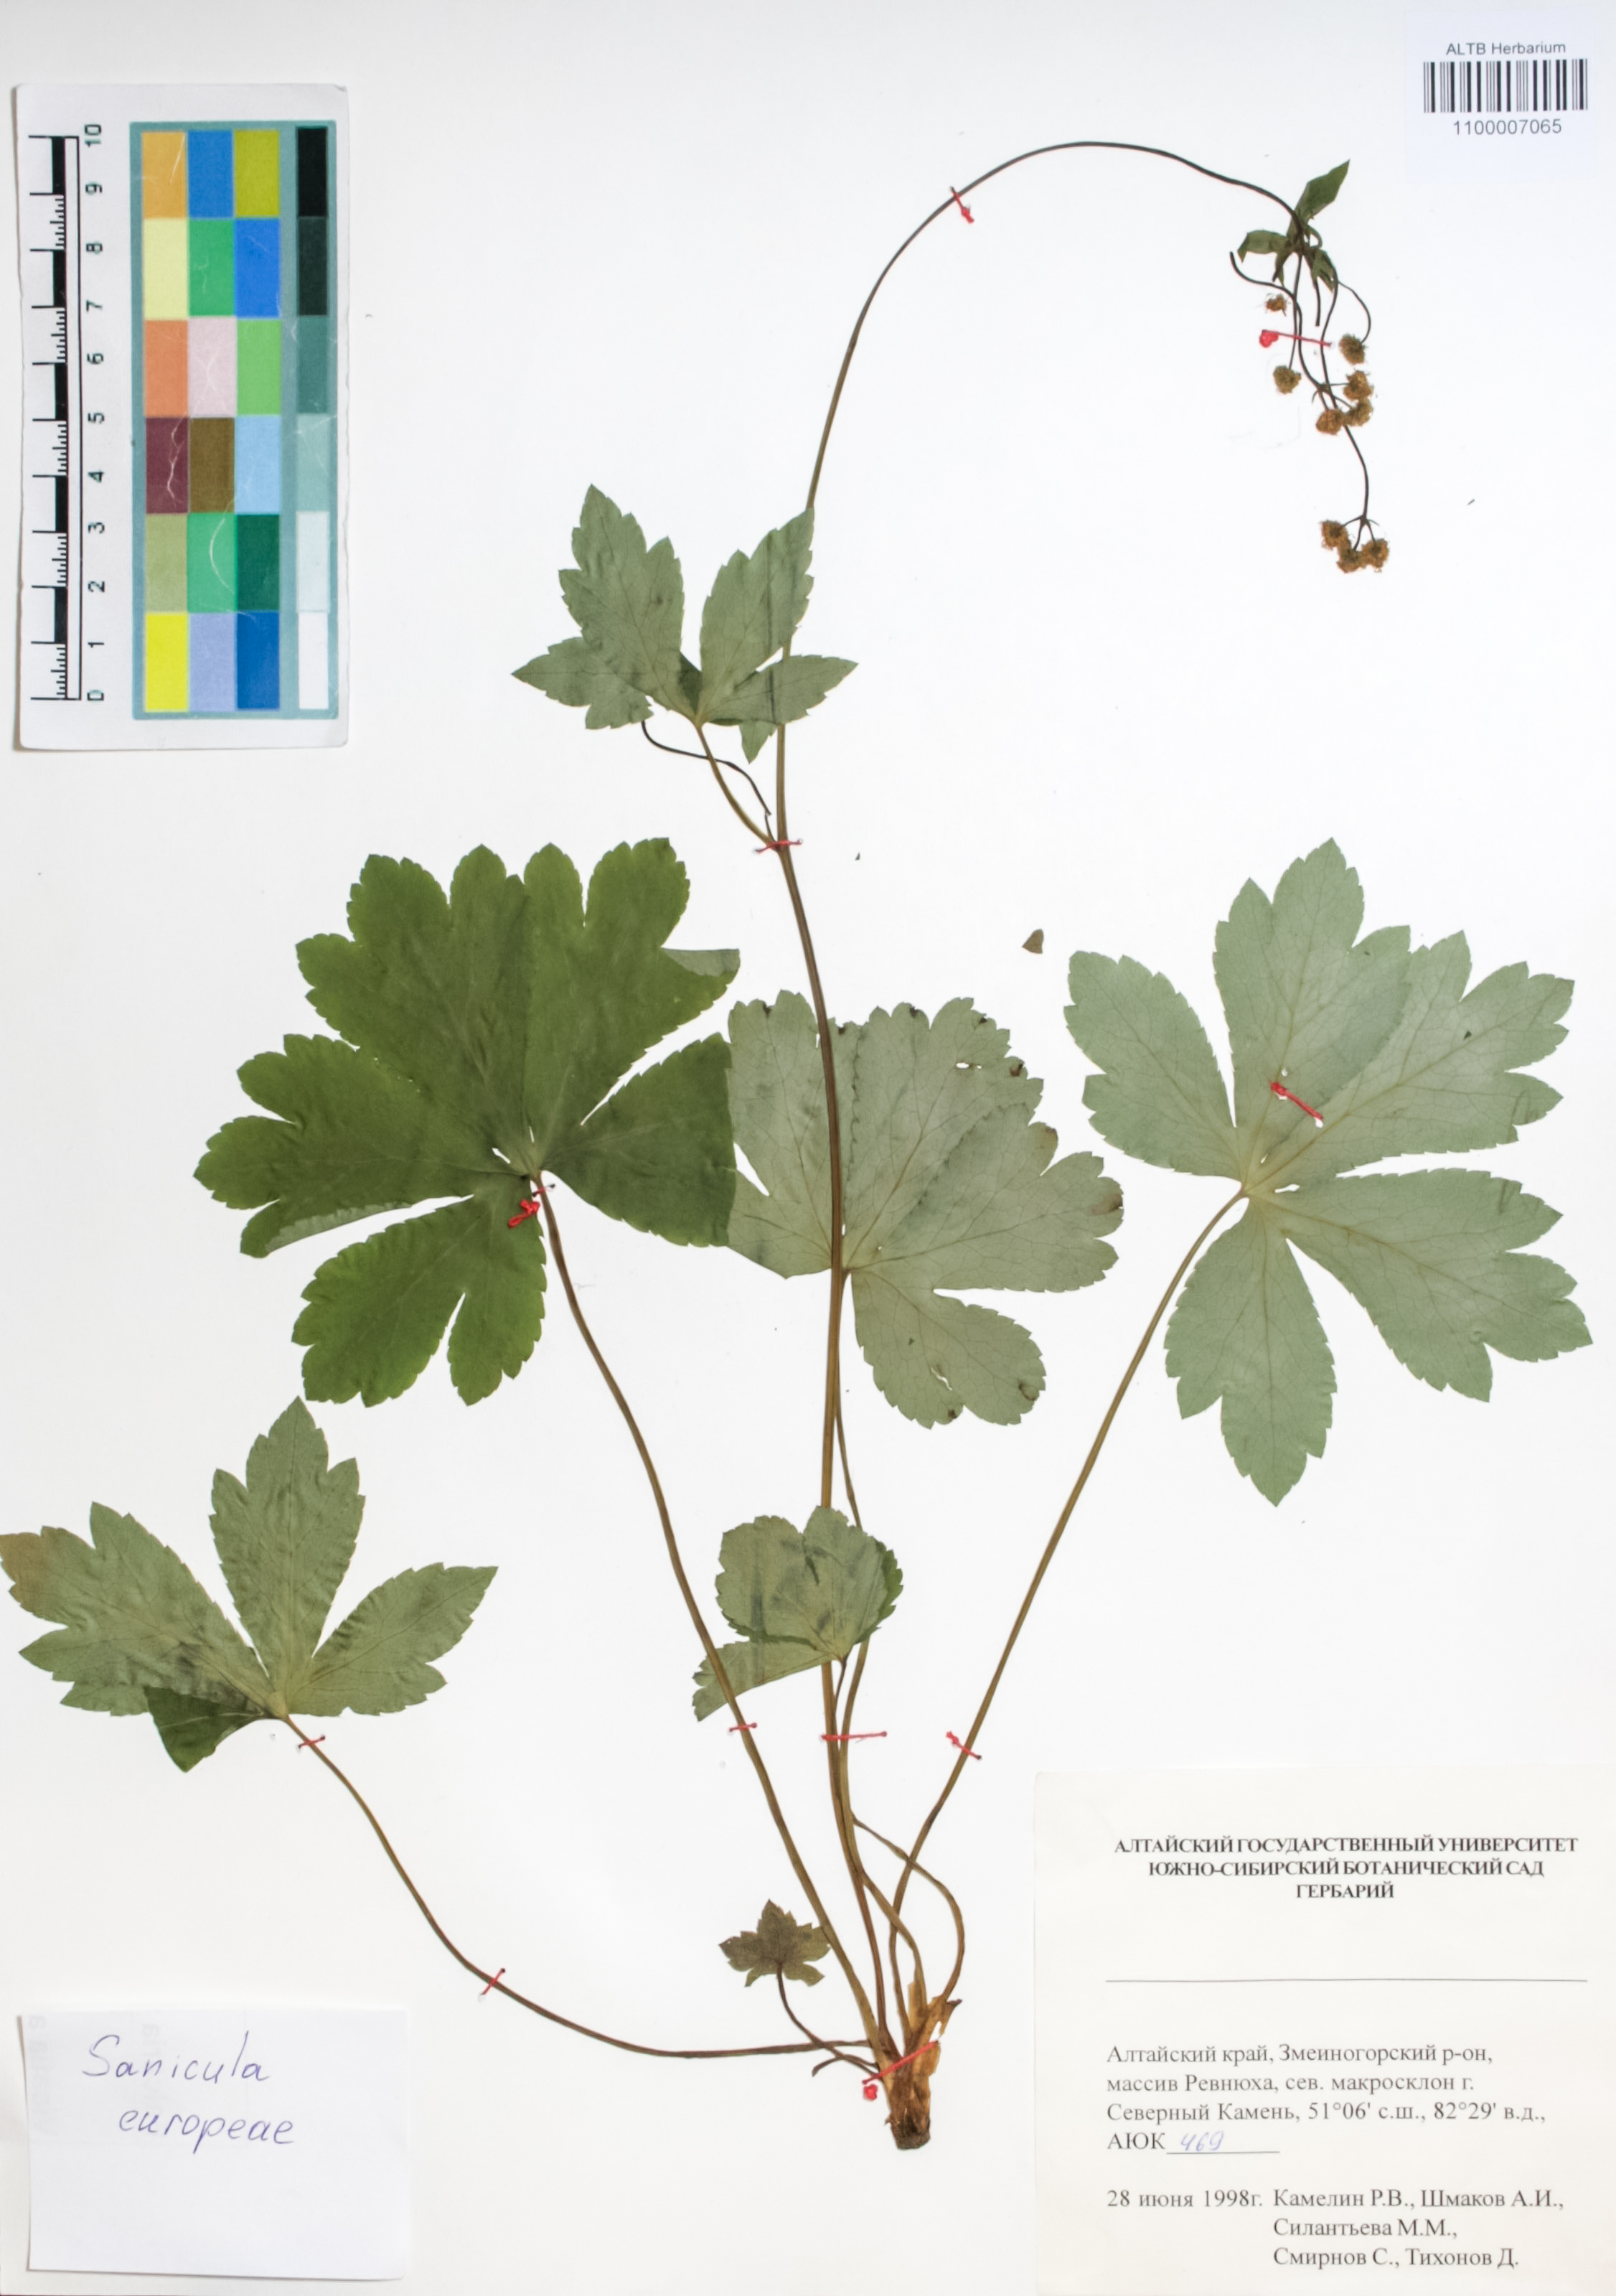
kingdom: Plantae
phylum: Tracheophyta
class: Magnoliopsida
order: Apiales
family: Apiaceae
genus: Sanicula
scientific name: Sanicula europaea
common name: Sanicle
